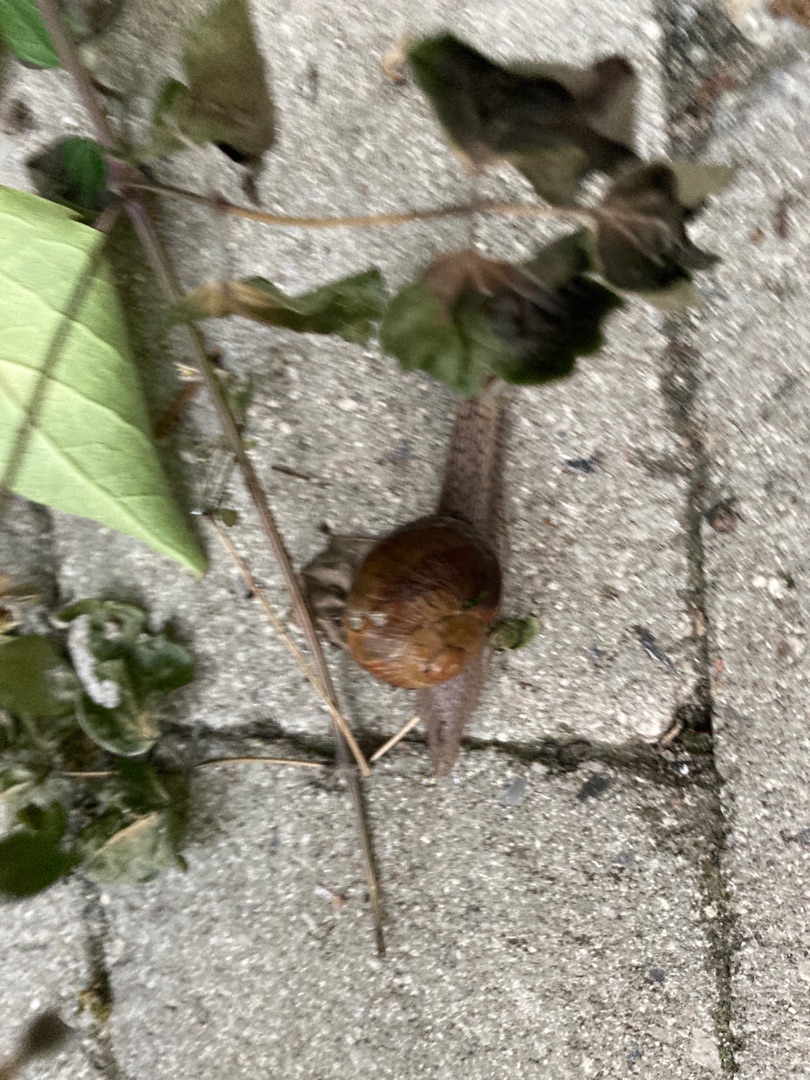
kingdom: Animalia
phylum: Mollusca
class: Gastropoda
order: Stylommatophora
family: Helicidae
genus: Helix
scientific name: Helix pomatia
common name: Vinbjergsnegl
